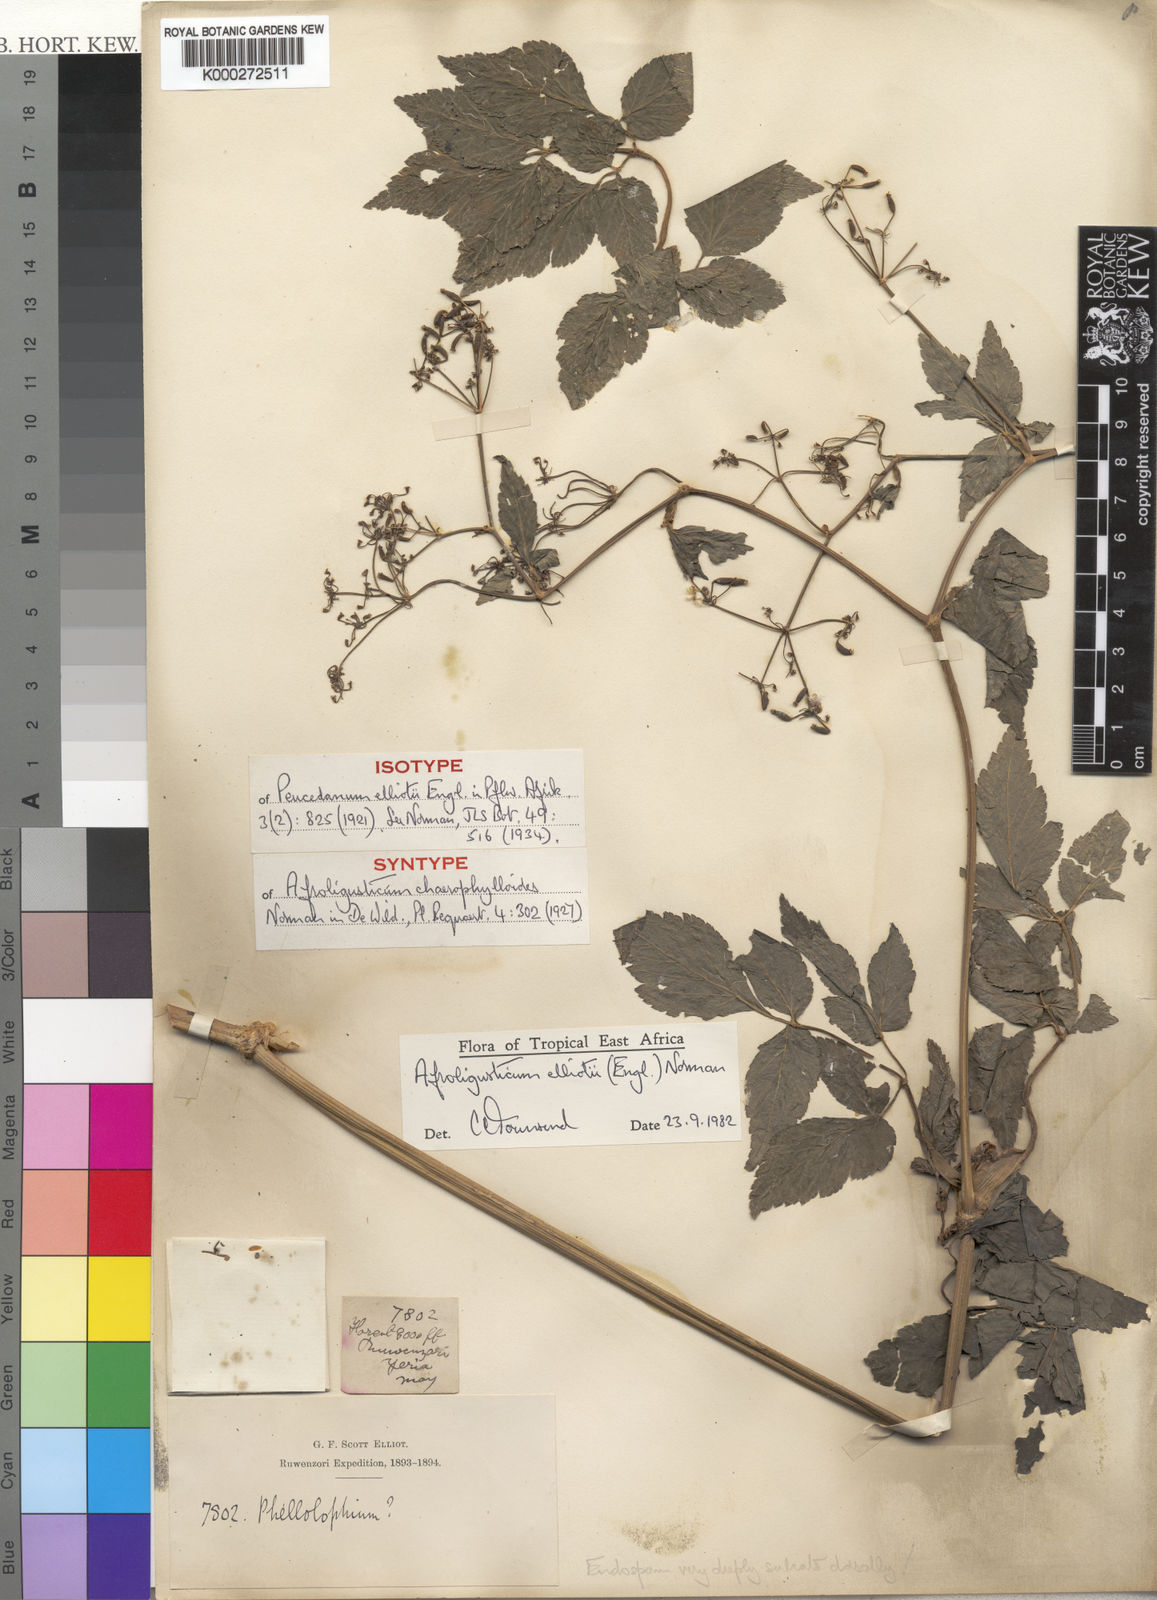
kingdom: Plantae
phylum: Tracheophyta
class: Magnoliopsida
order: Apiales
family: Apiaceae
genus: Afroligusticum
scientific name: Afroligusticum elliotii
